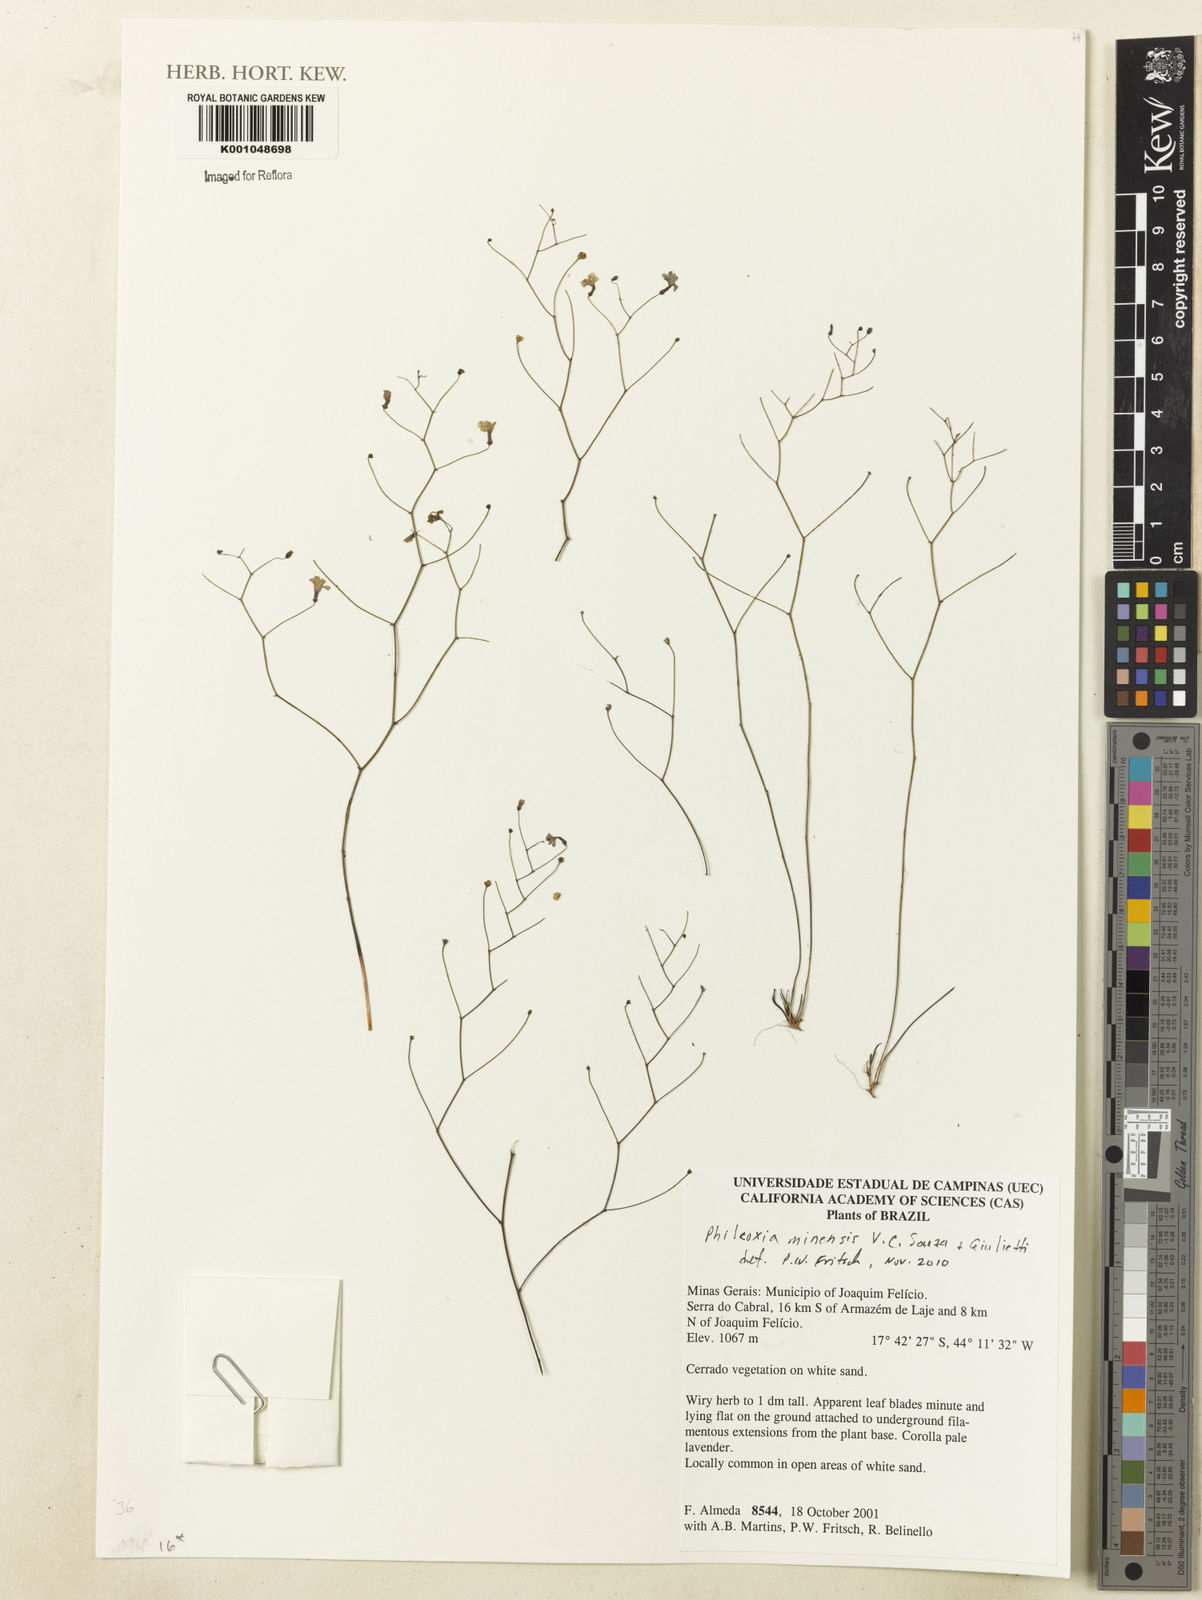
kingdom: Plantae
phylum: Tracheophyta
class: Magnoliopsida
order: Lamiales
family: Plantaginaceae
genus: Philcoxia
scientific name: Philcoxia minensis
